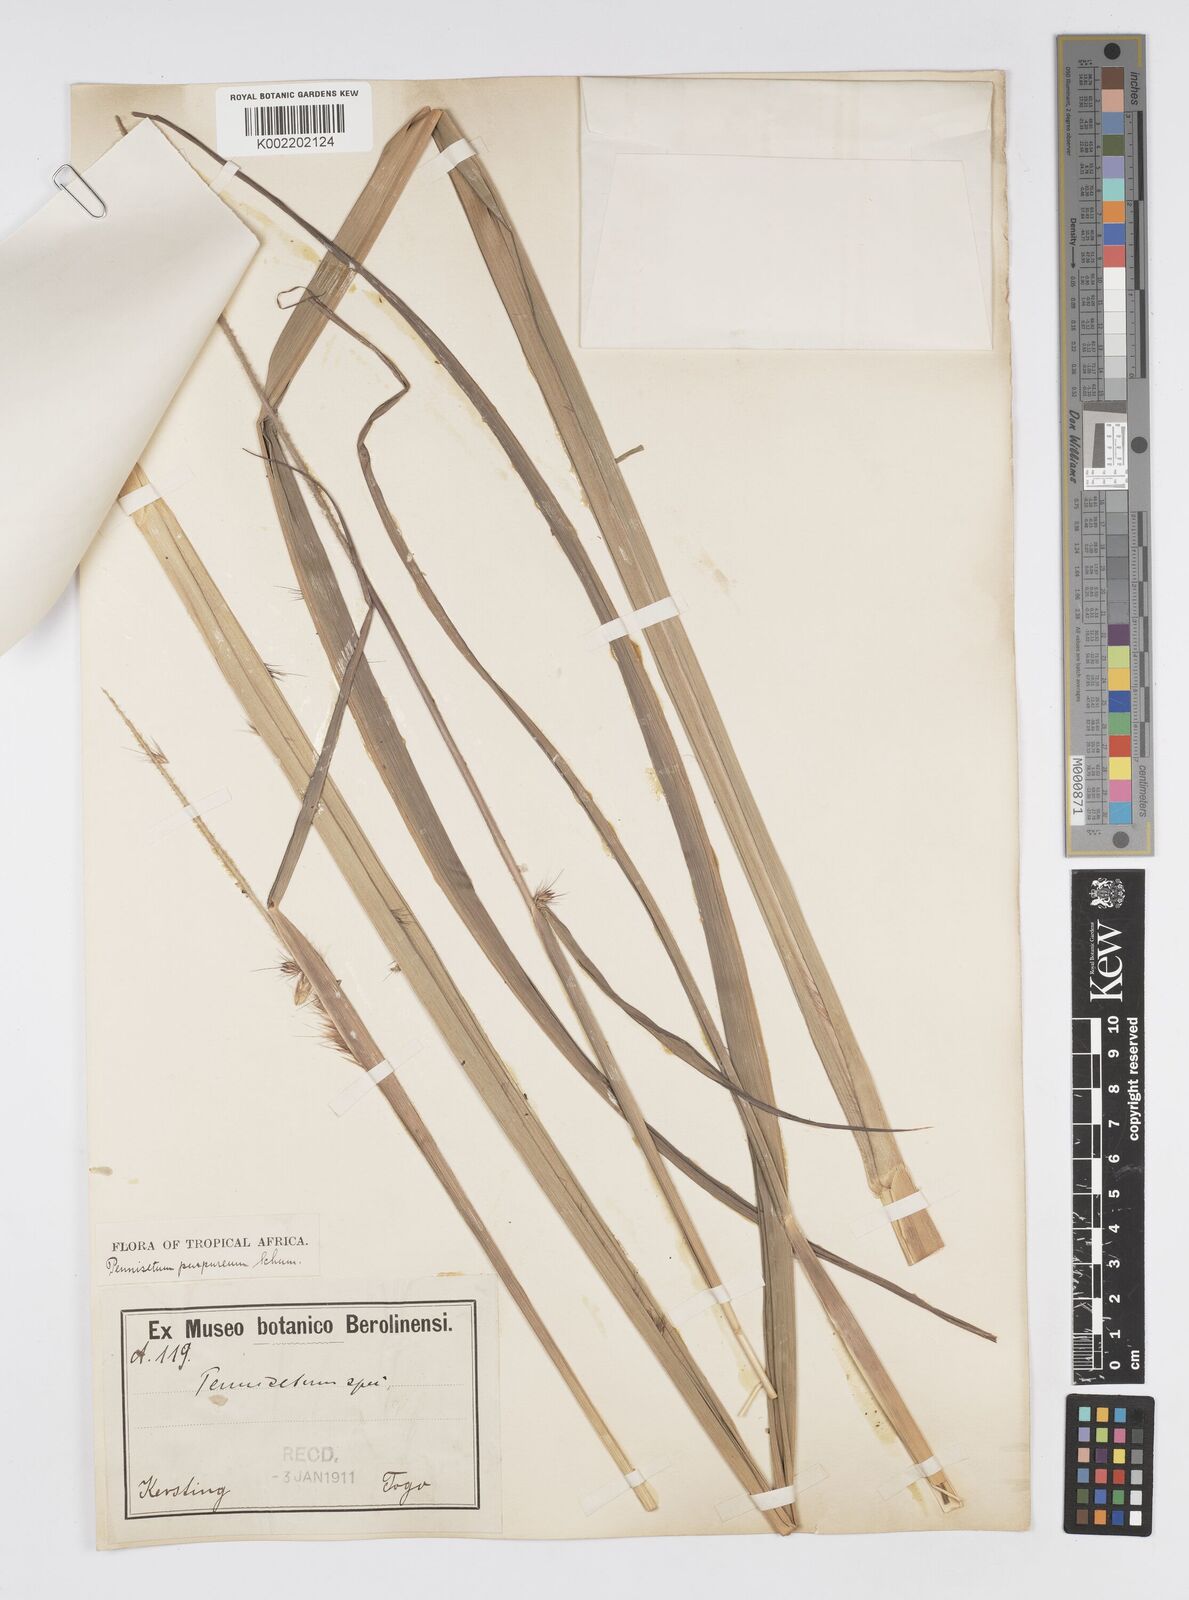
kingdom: Plantae
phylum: Tracheophyta
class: Liliopsida
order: Poales
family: Poaceae
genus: Cenchrus
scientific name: Cenchrus purpureus
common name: Elephant grass
